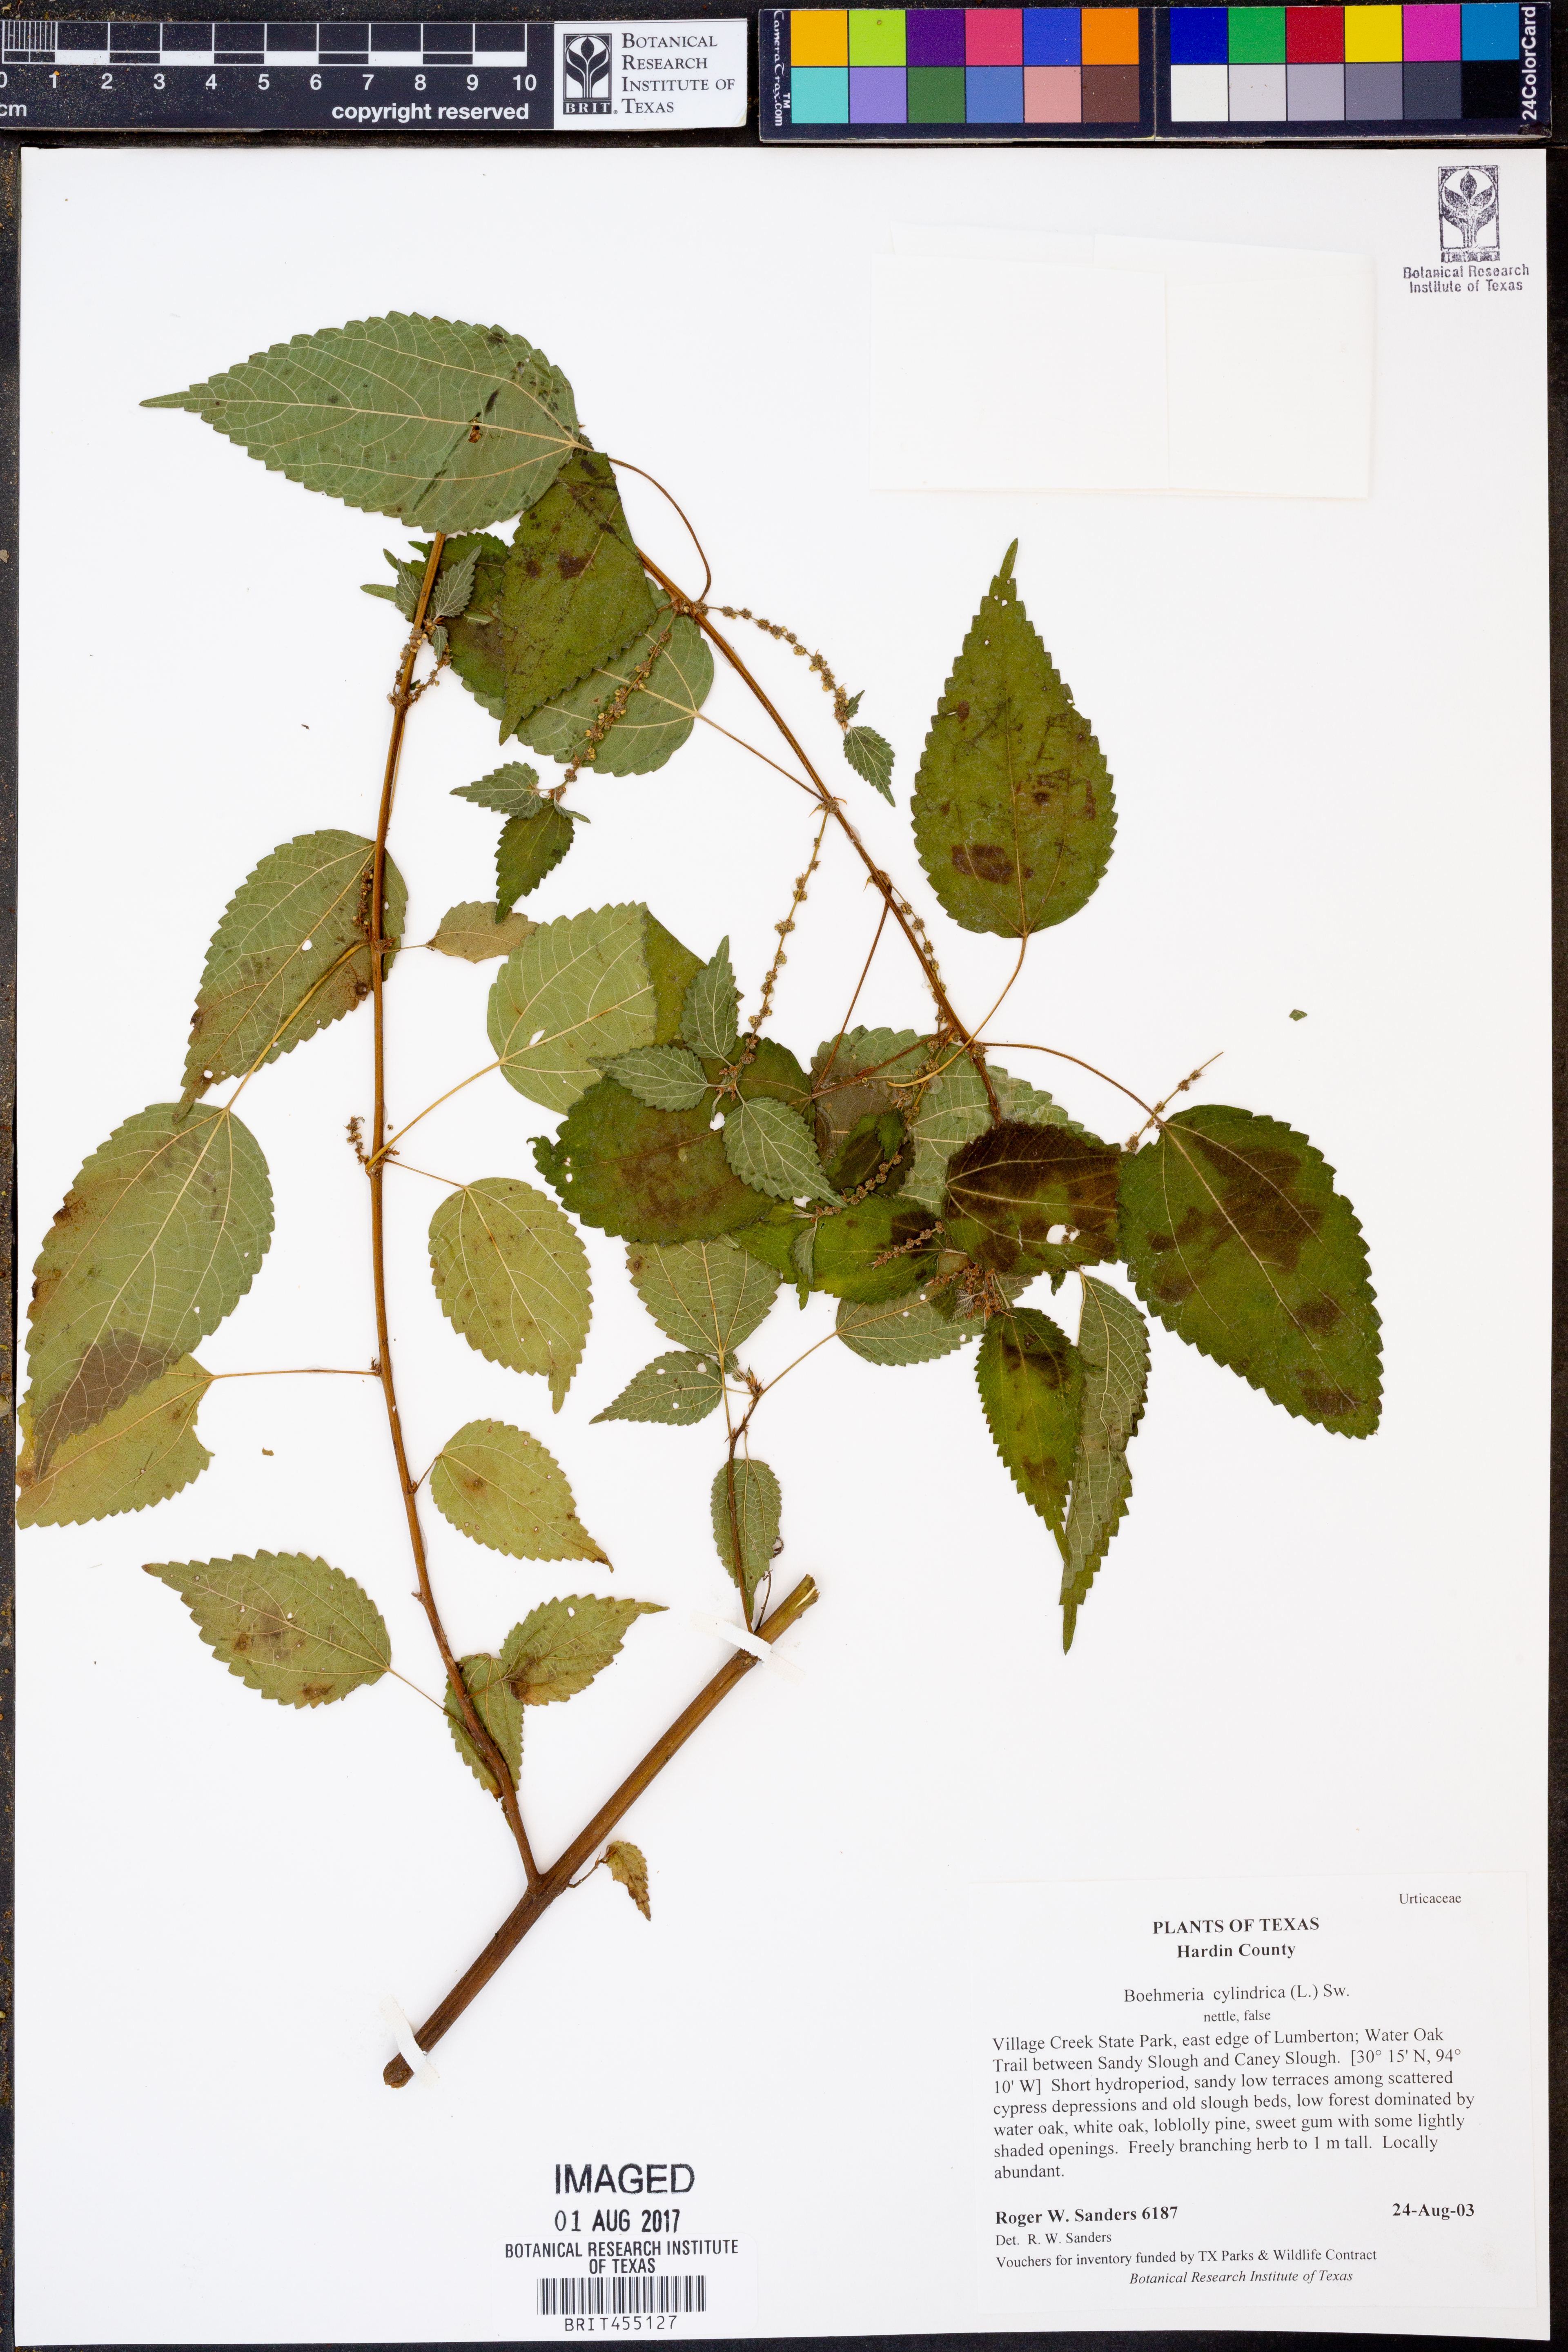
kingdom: Plantae
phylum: Tracheophyta
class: Magnoliopsida
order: Rosales
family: Urticaceae
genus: Boehmeria
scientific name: Boehmeria cylindrica
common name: Bog-hemp
